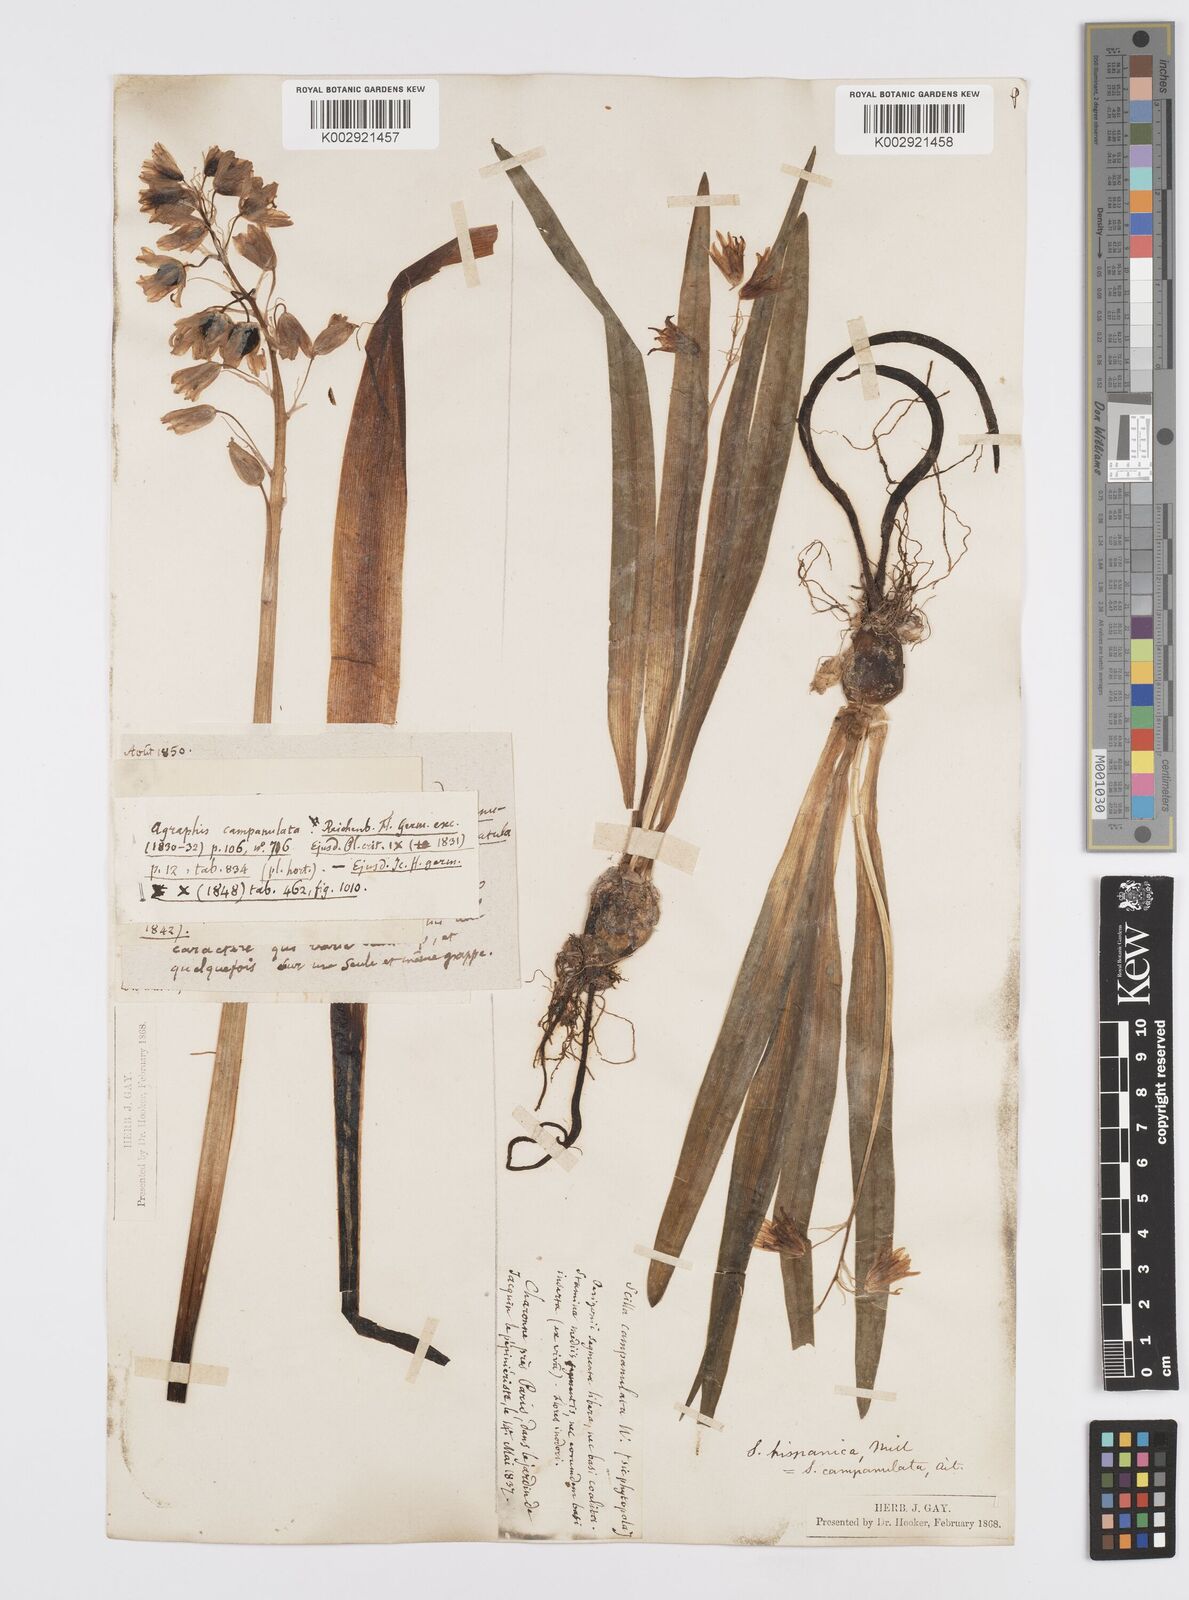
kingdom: Plantae
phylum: Tracheophyta
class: Liliopsida
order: Asparagales
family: Asparagaceae
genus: Hyacinthoides
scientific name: Hyacinthoides hispanica
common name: Spanish bluebell
